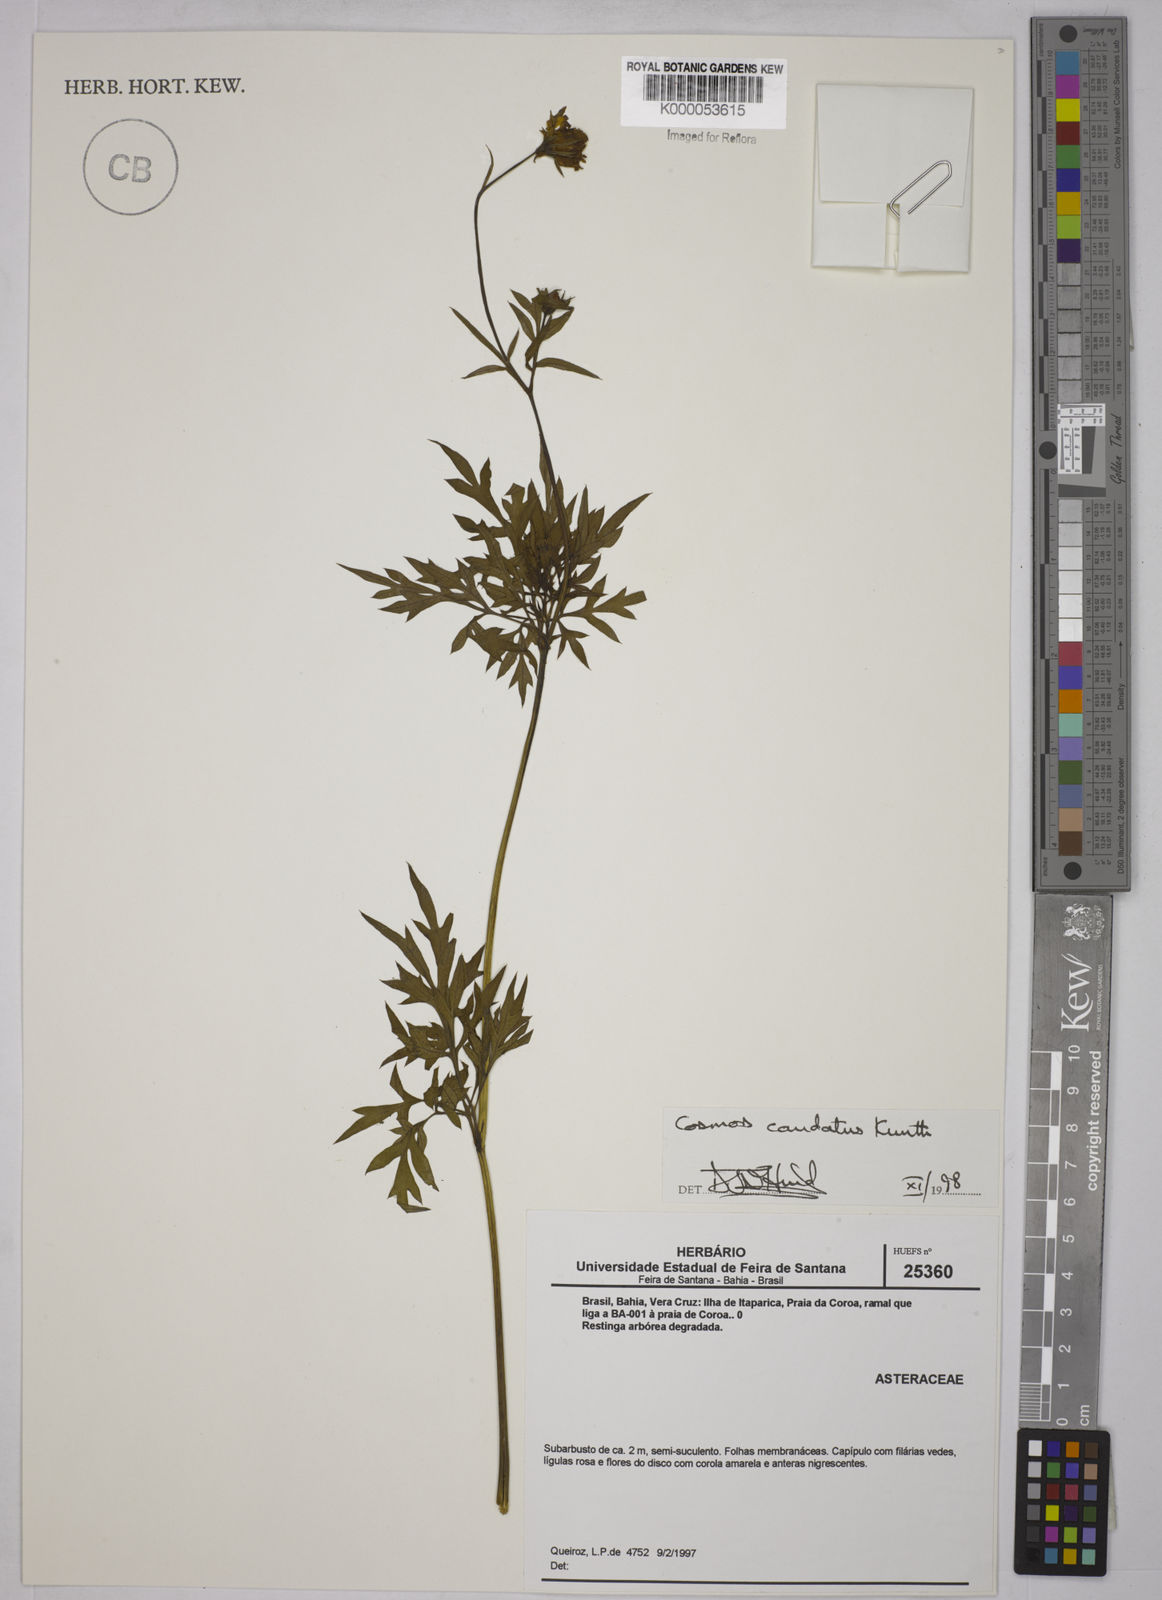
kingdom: Plantae
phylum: Tracheophyta
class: Magnoliopsida
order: Asterales
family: Asteraceae
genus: Cosmos
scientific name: Cosmos caudatus
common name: Wild cosmos
